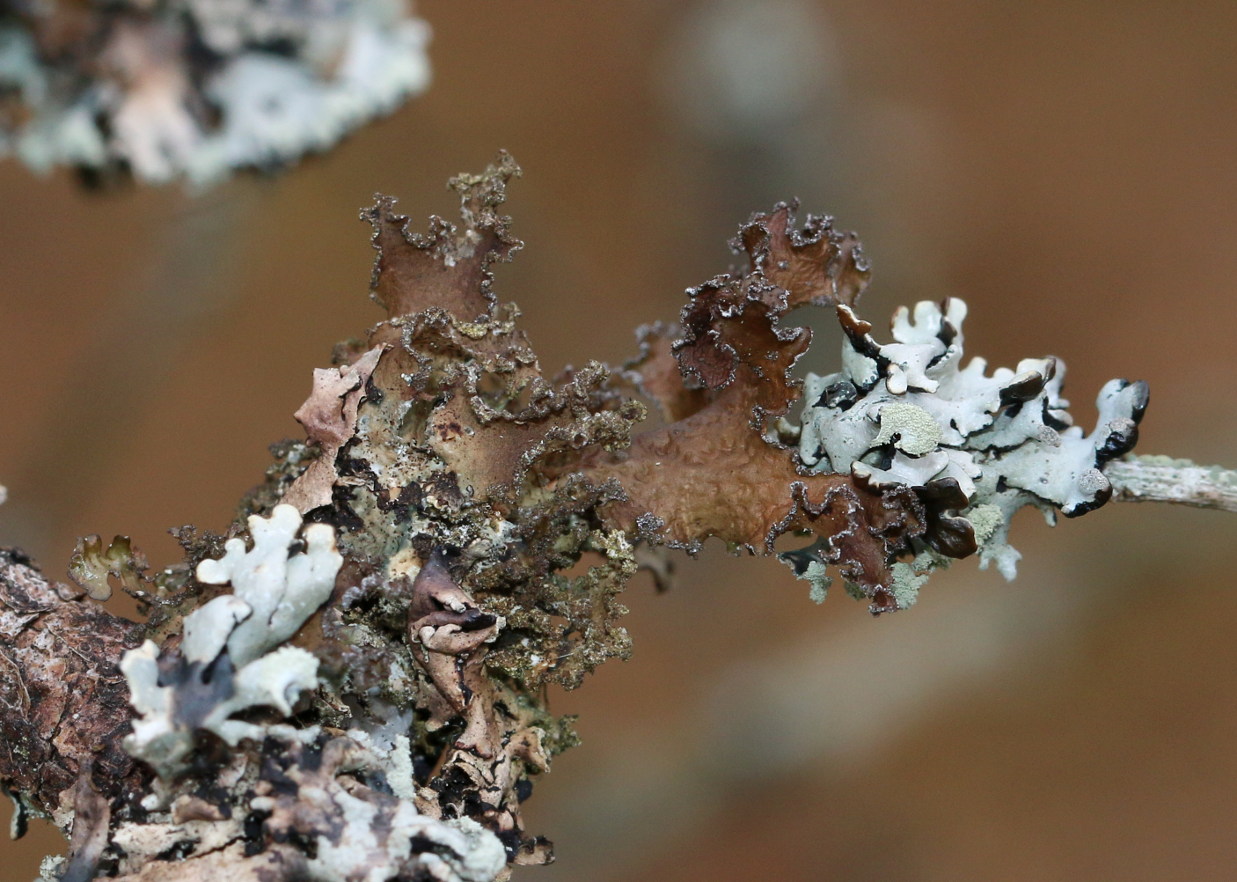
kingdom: Fungi
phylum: Ascomycota
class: Lecanoromycetes
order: Lecanorales
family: Parmeliaceae
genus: Nephromopsis
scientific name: Nephromopsis chlorophylla
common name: olivenbrun kruslav
